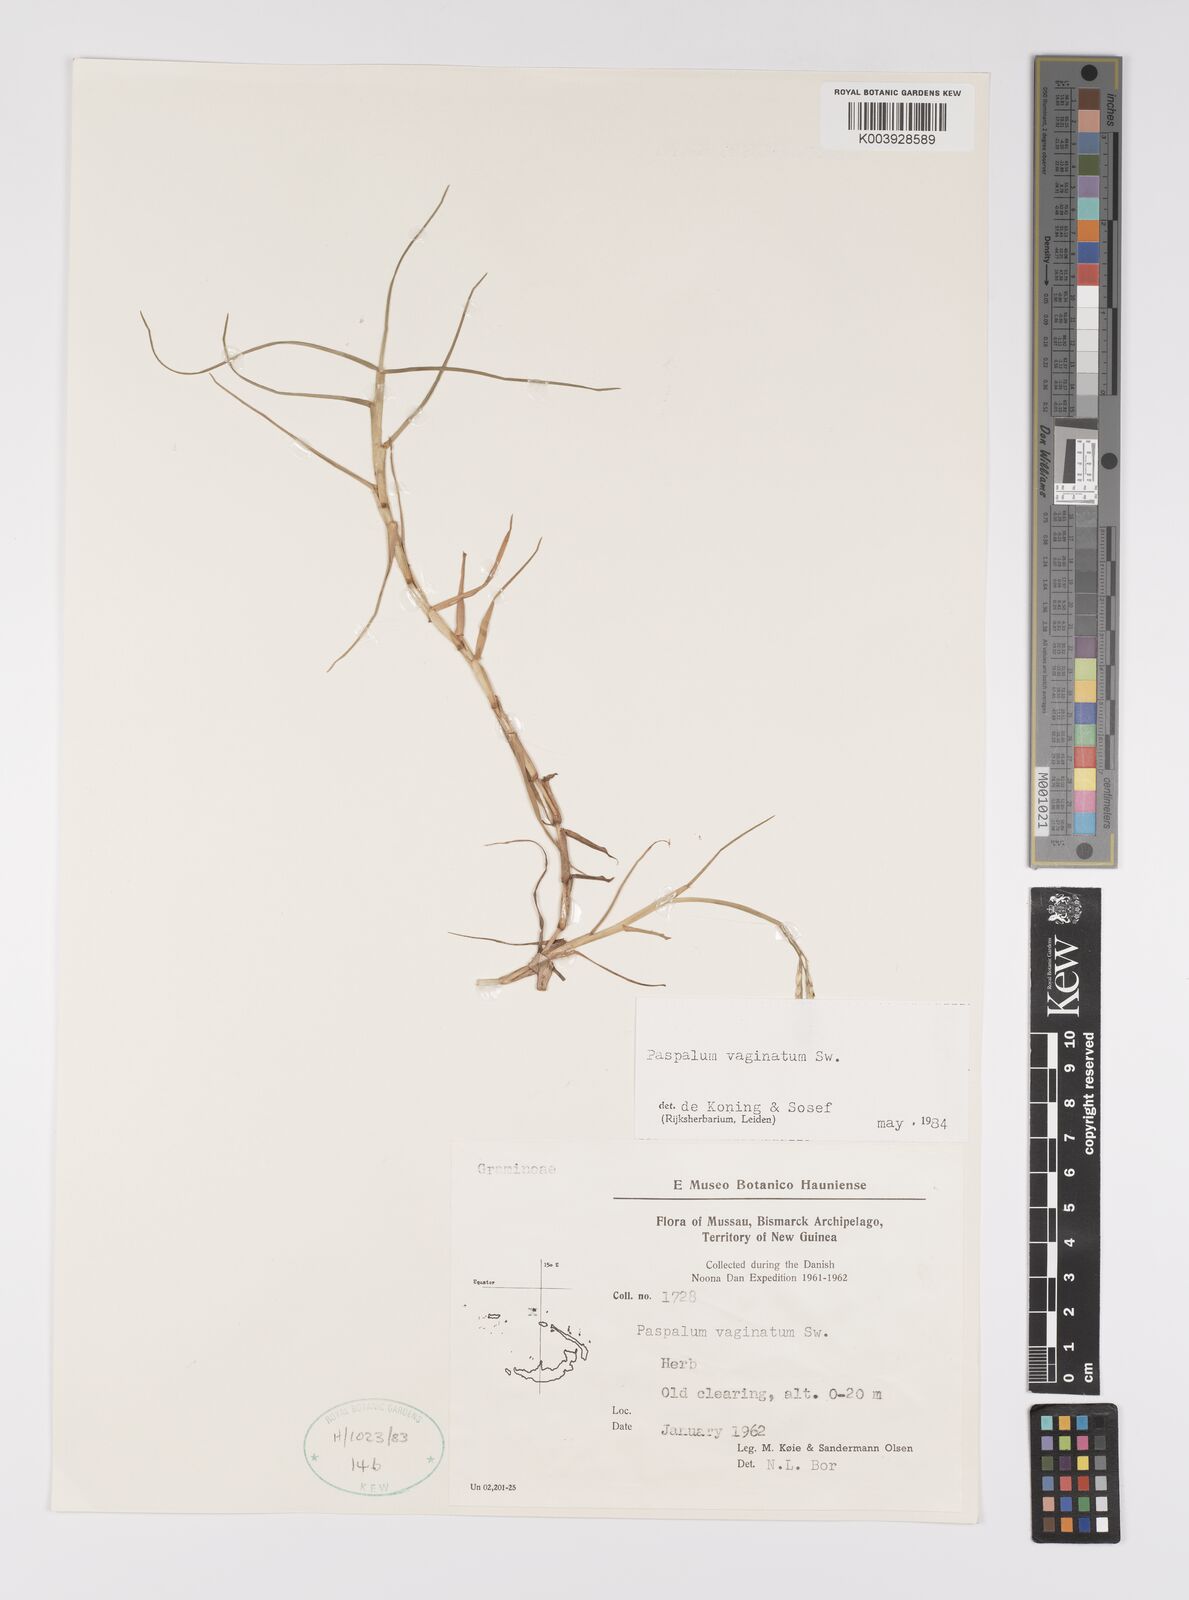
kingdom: Plantae
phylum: Tracheophyta
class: Liliopsida
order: Poales
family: Poaceae
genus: Paspalum
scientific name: Paspalum vaginatum
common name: Seashore paspalum
